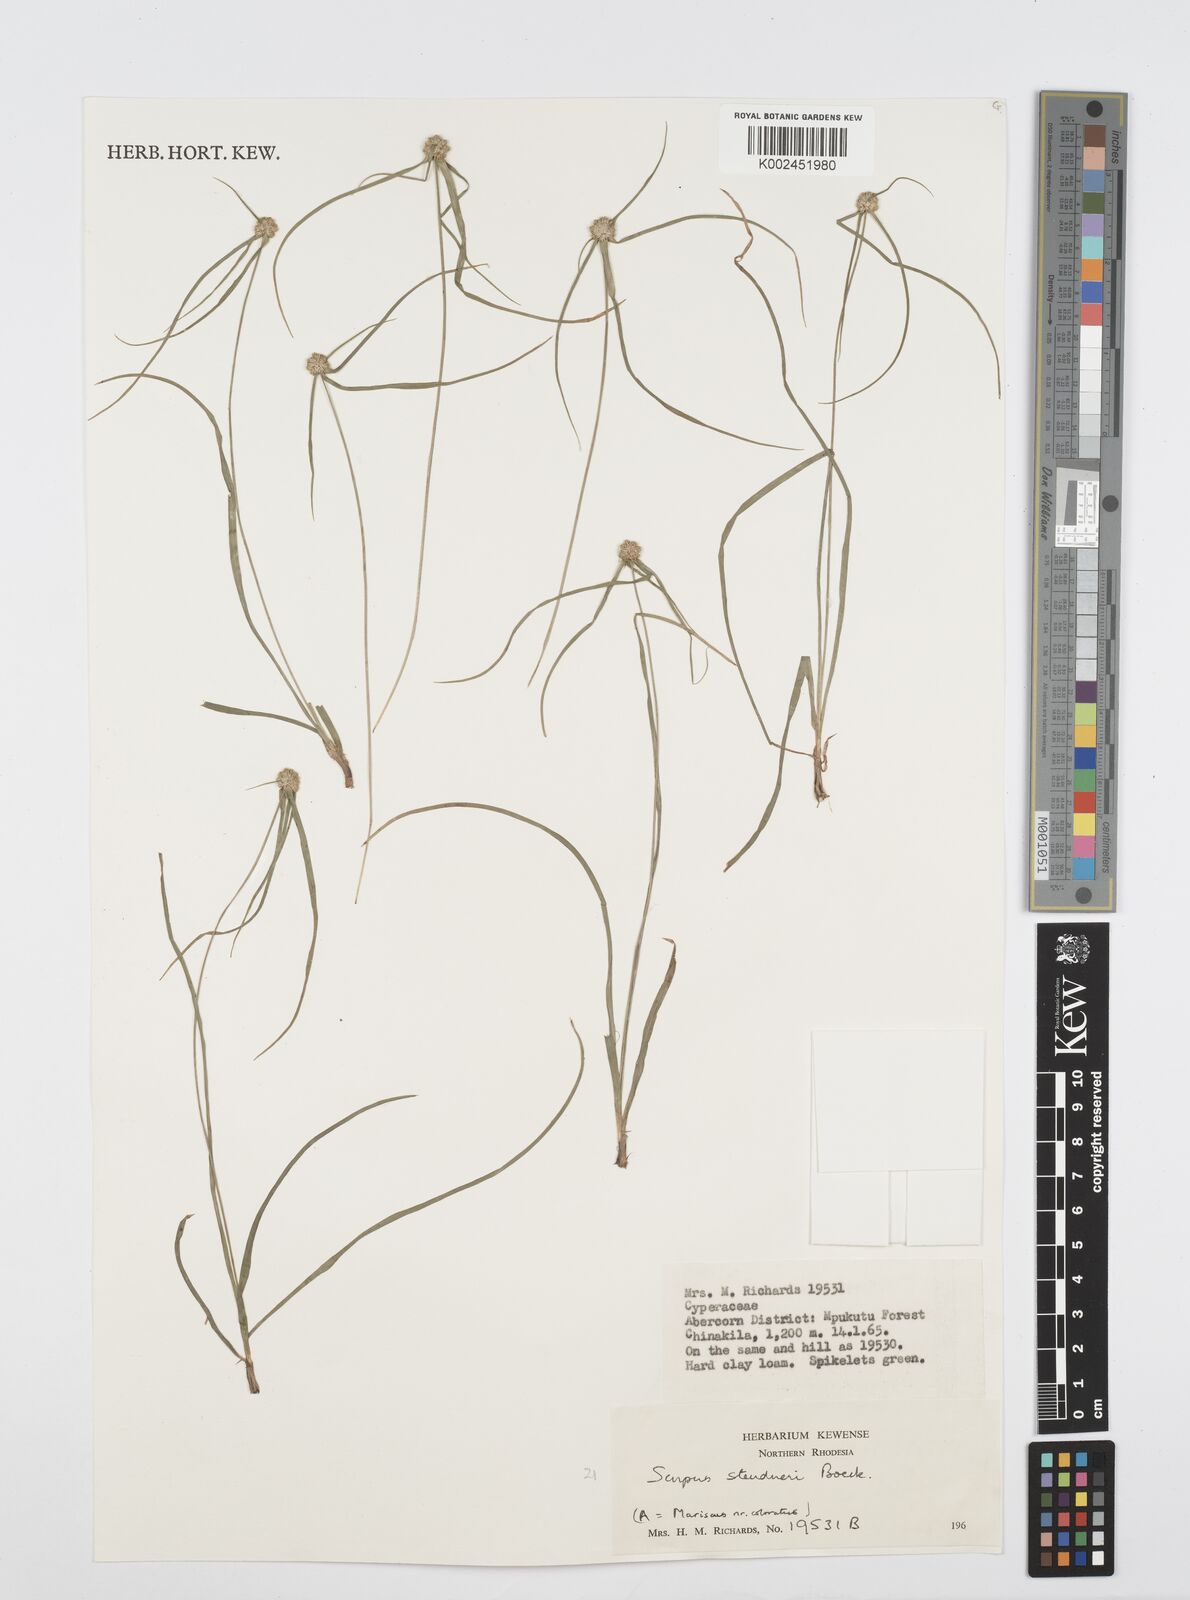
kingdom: Plantae
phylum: Tracheophyta
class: Liliopsida
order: Poales
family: Cyperaceae
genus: Cyperus
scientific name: Cyperus microcephalus
